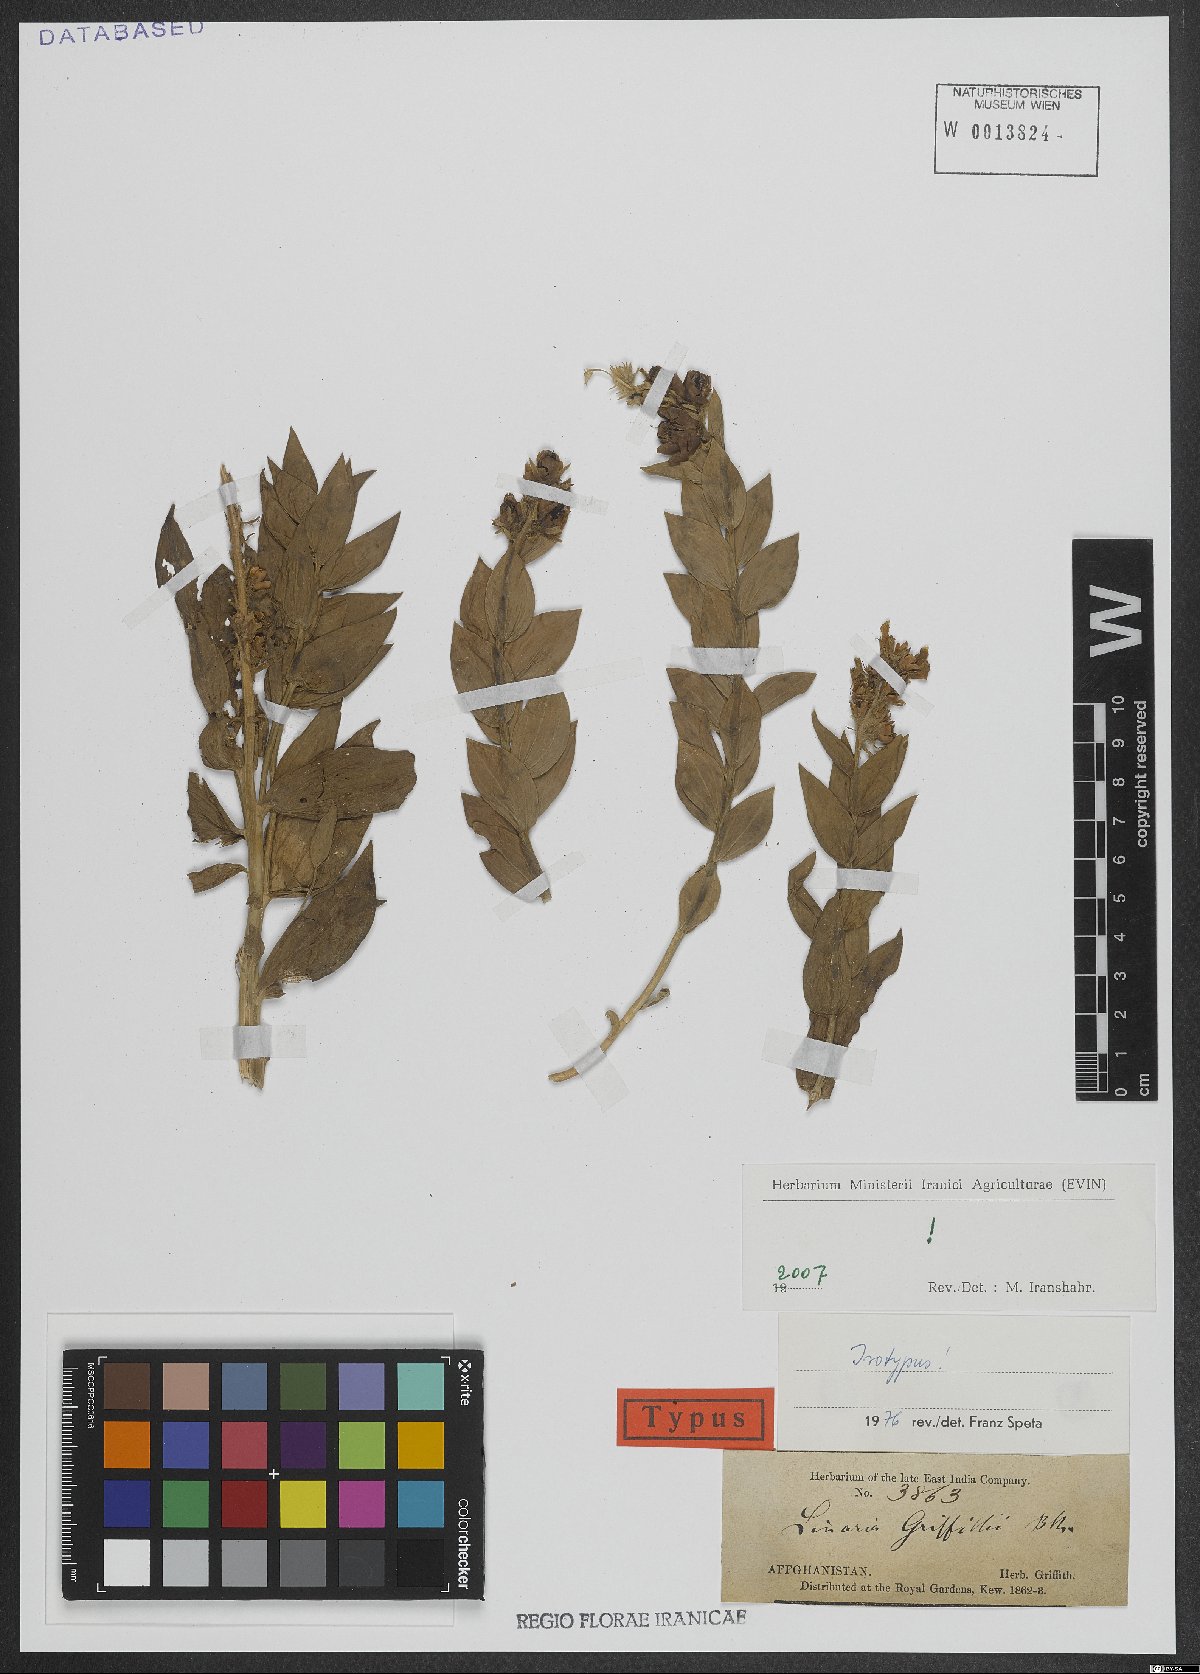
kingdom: Plantae
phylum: Tracheophyta
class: Magnoliopsida
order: Lamiales
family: Plantaginaceae
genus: Linaria
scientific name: Linaria griffithii
